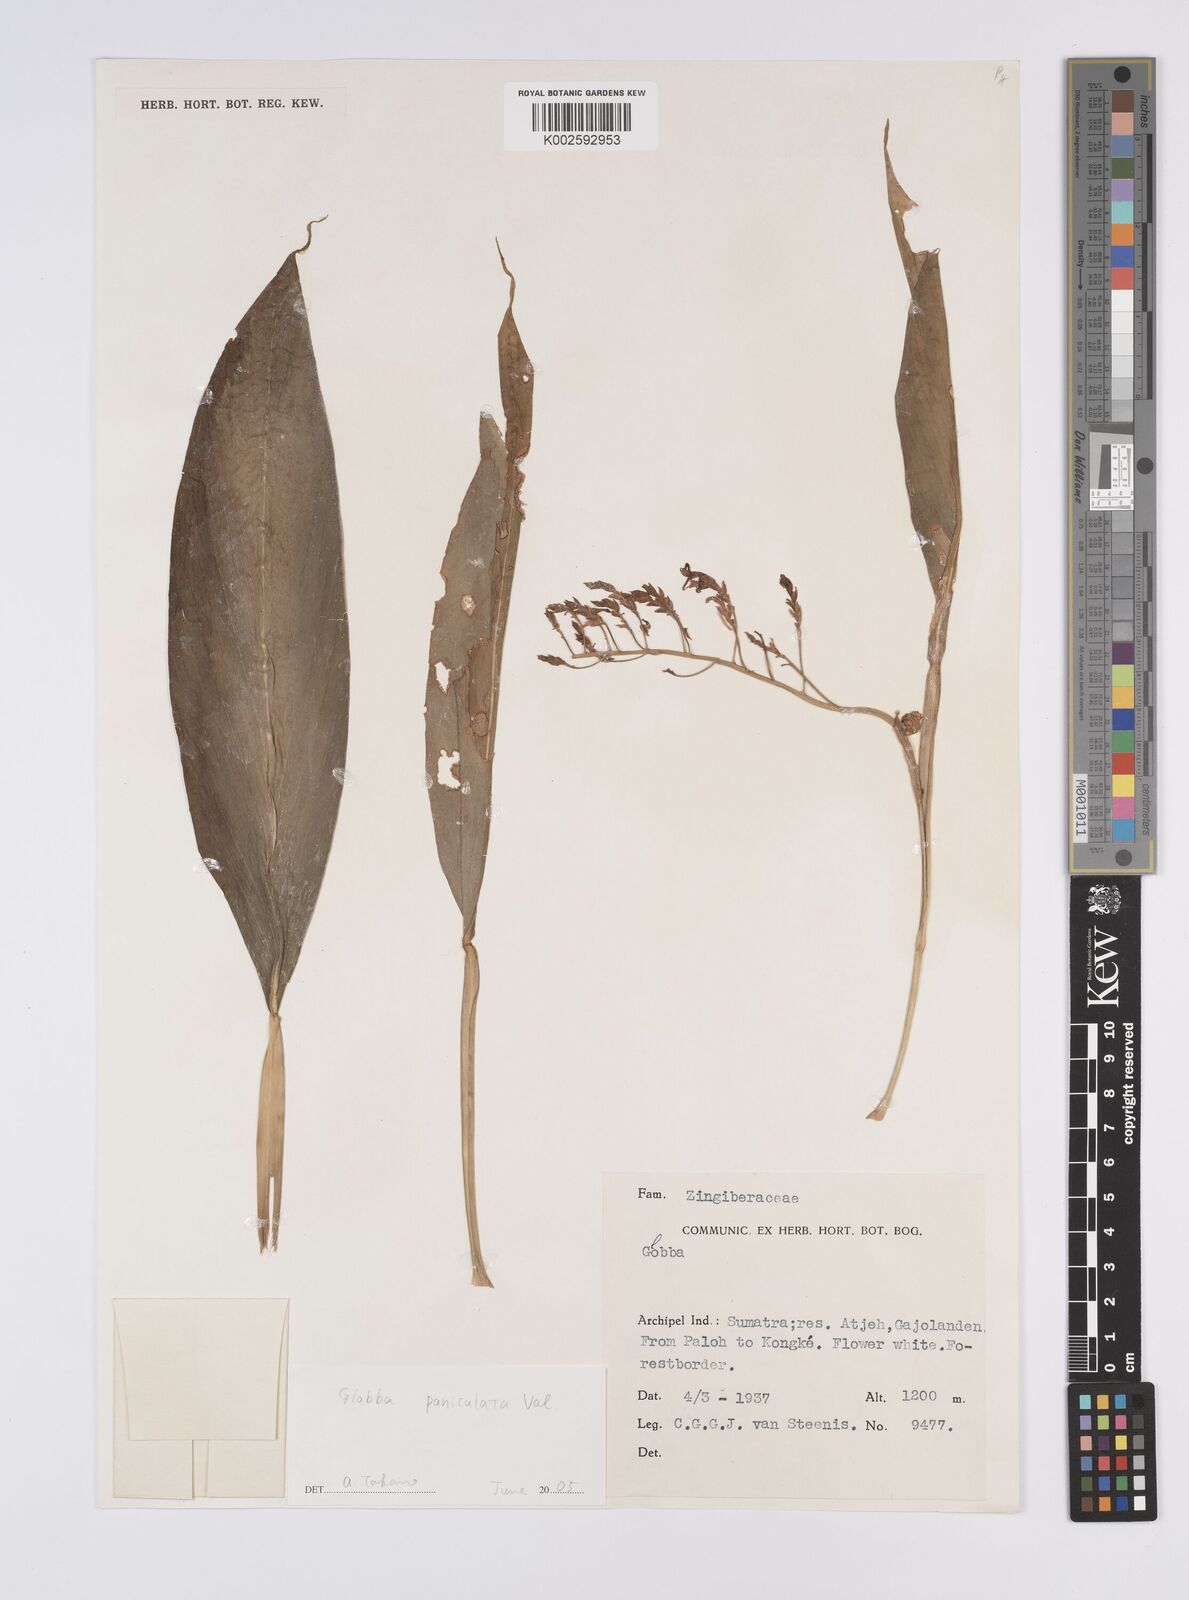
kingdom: Plantae
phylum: Tracheophyta
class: Liliopsida
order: Zingiberales
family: Zingiberaceae
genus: Globba
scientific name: Globba paniculata
